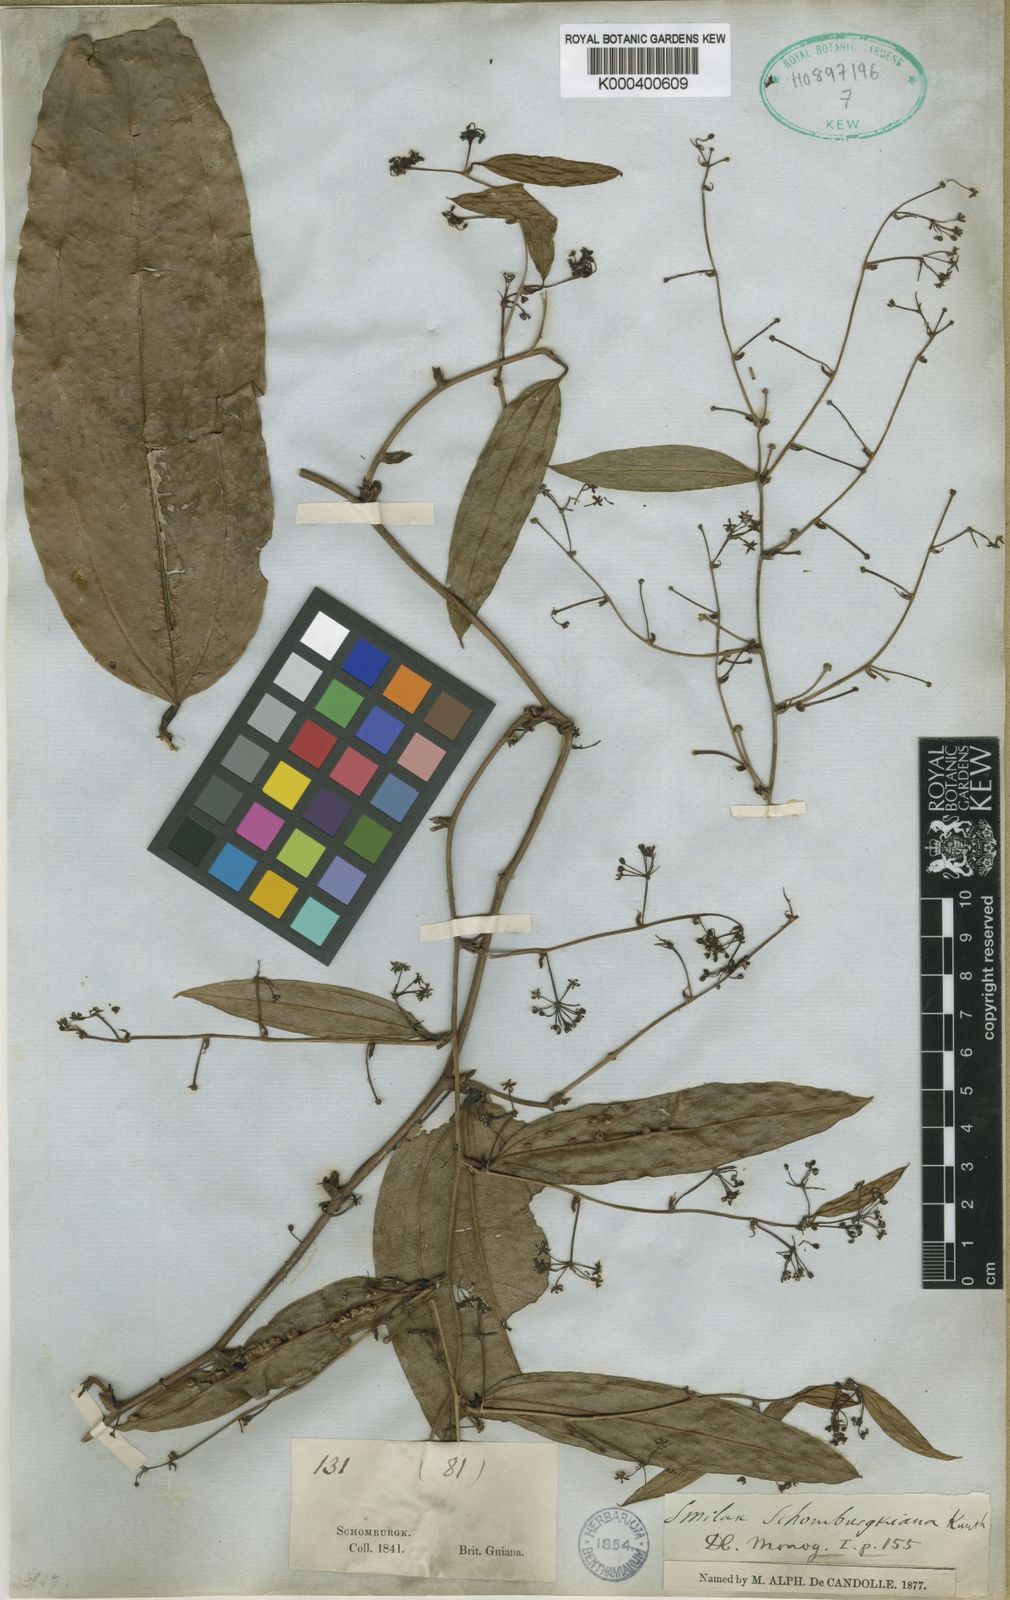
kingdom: Plantae
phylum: Tracheophyta
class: Liliopsida
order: Liliales
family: Smilacaceae
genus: Smilax
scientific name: Smilax schomburgkiana
